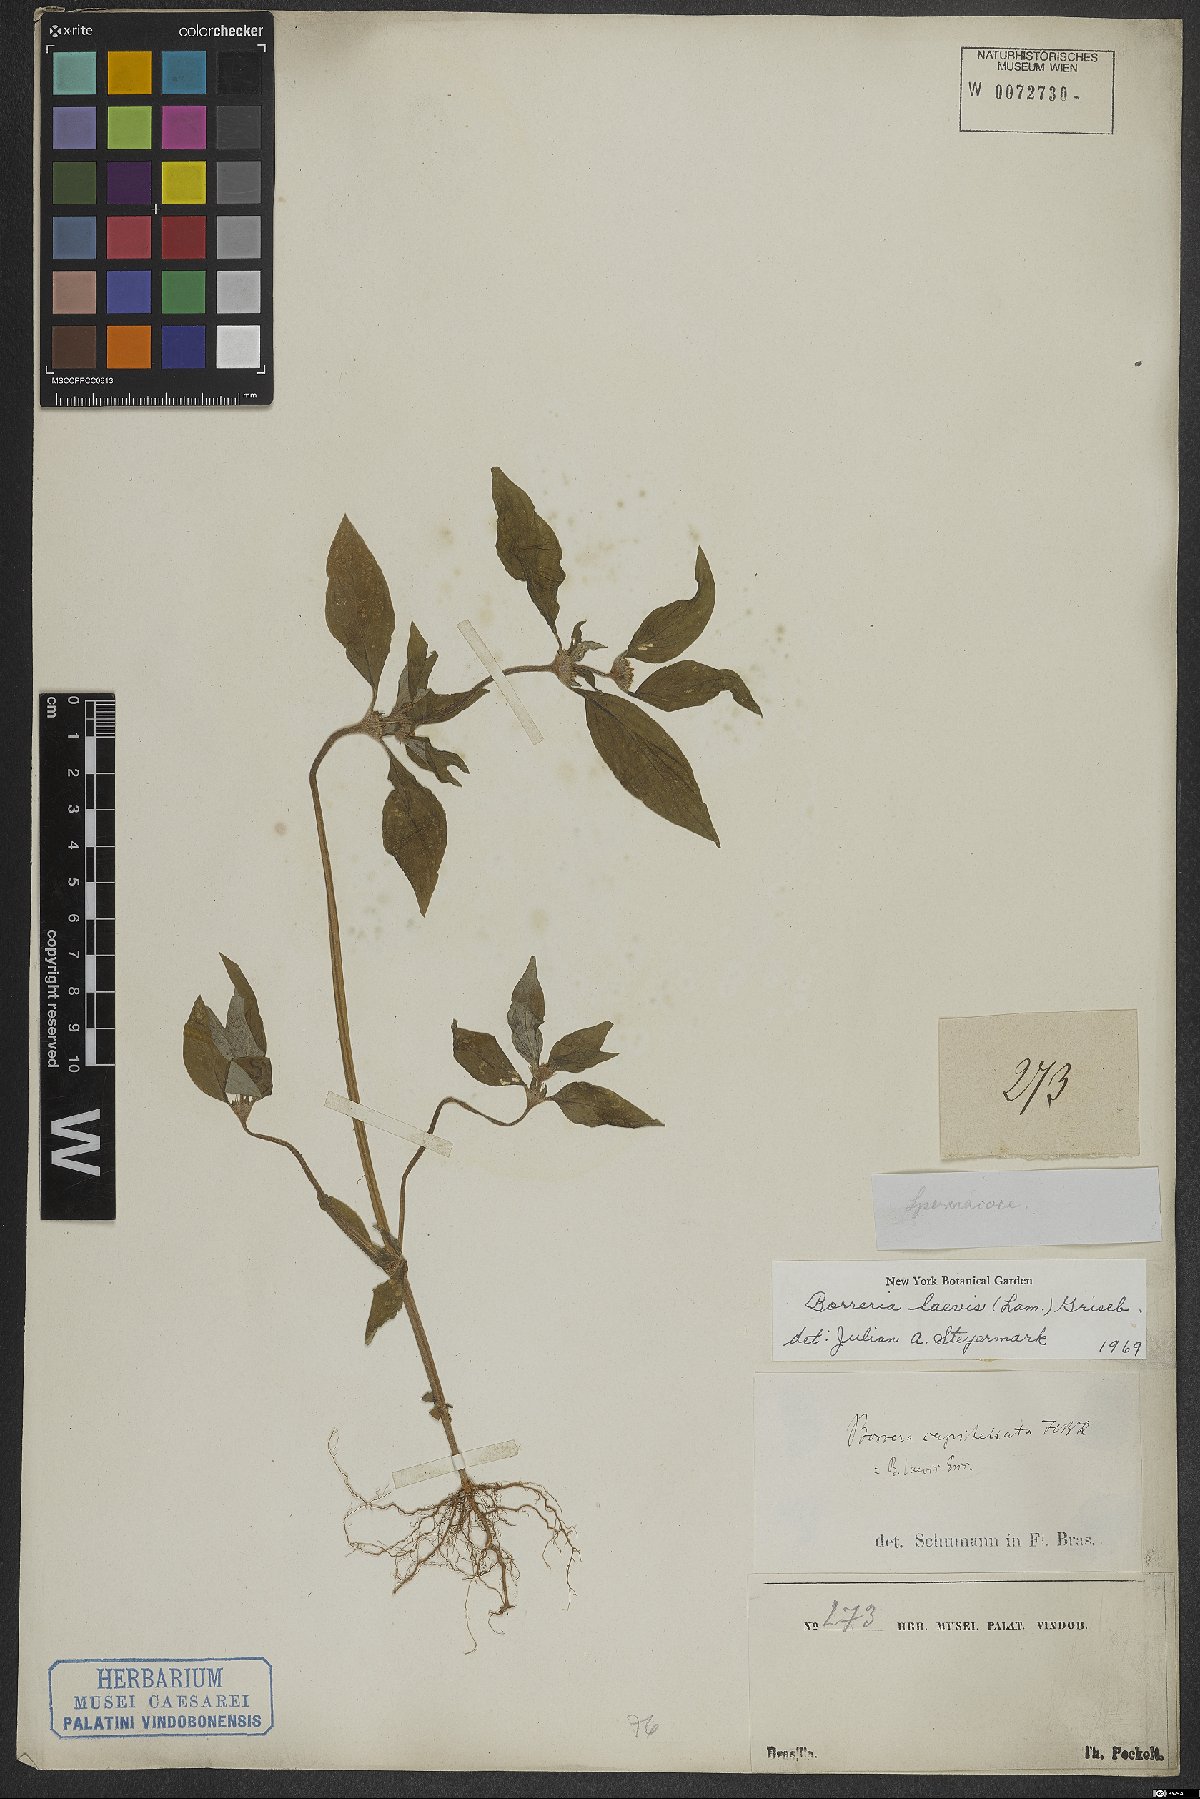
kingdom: Plantae
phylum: Tracheophyta
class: Magnoliopsida
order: Gentianales
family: Rubiaceae
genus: Spermacoce
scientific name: Spermacoce tenuior
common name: River false buttonweed
